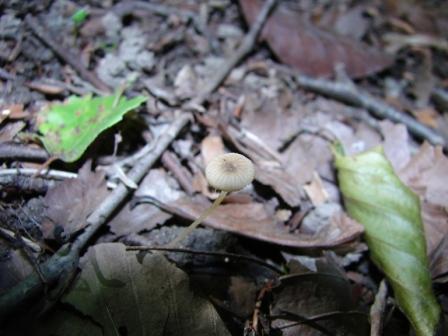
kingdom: Fungi
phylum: Basidiomycota
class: Agaricomycetes
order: Agaricales
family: Porotheleaceae
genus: Phloeomana
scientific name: Phloeomana speirea
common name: kvist-huesvamp
